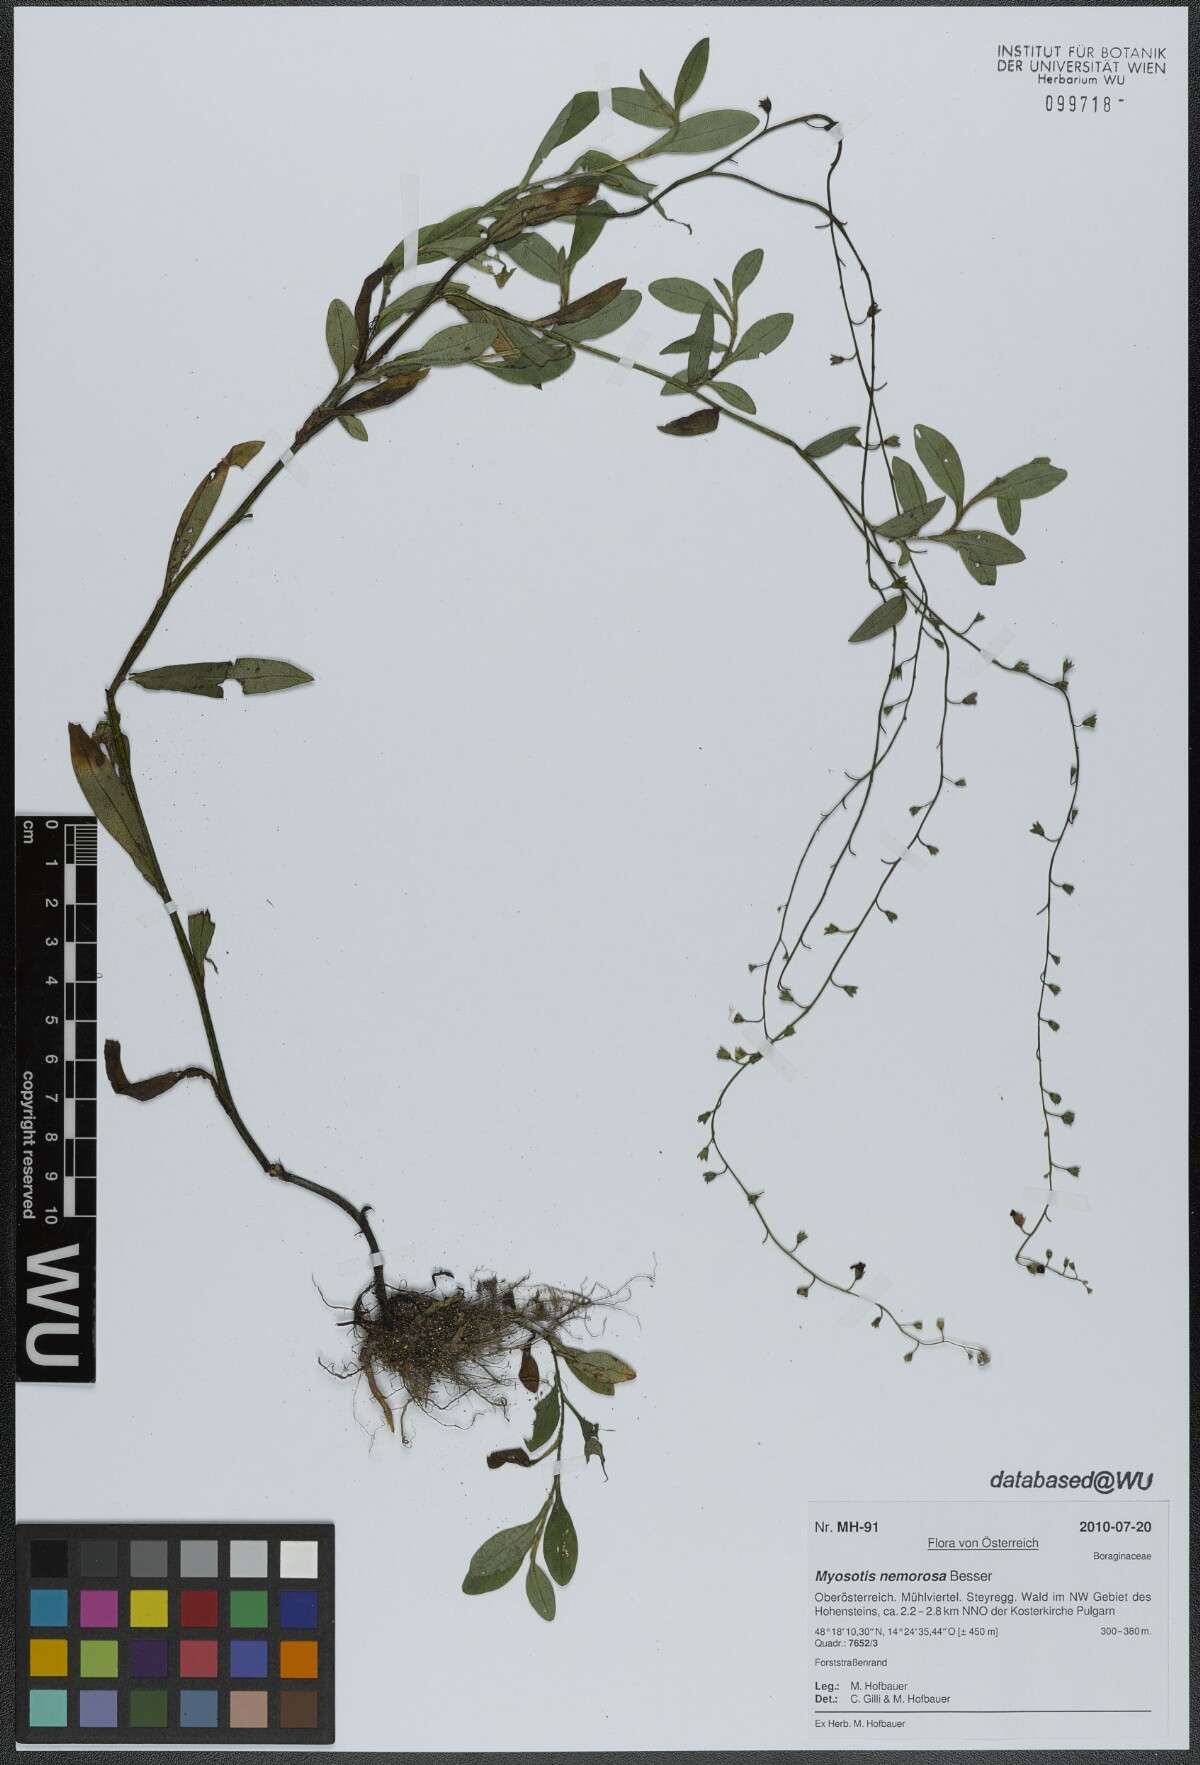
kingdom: Plantae
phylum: Tracheophyta
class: Magnoliopsida
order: Boraginales
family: Boraginaceae
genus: Myosotis
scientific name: Myosotis nemorosa
